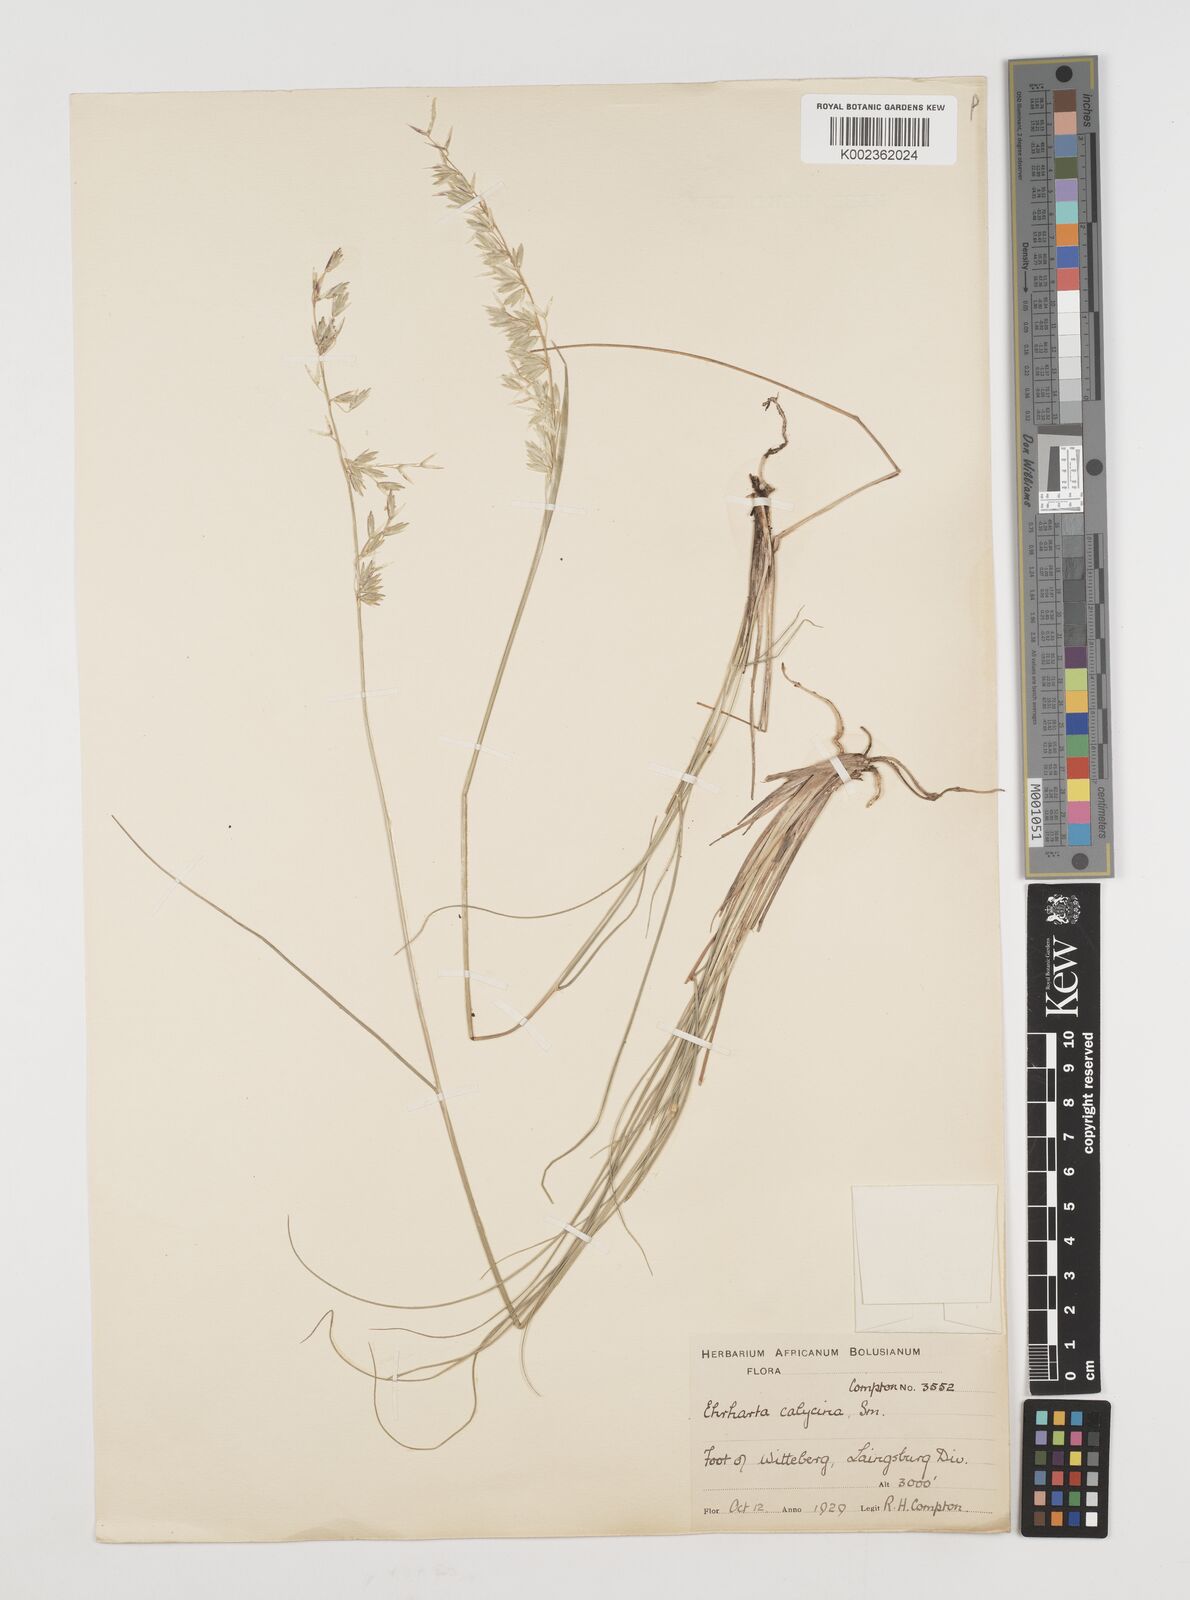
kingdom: Plantae
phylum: Tracheophyta
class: Liliopsida
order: Poales
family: Poaceae
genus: Ehrharta
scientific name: Ehrharta calycina
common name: Perennial veldtgrass
